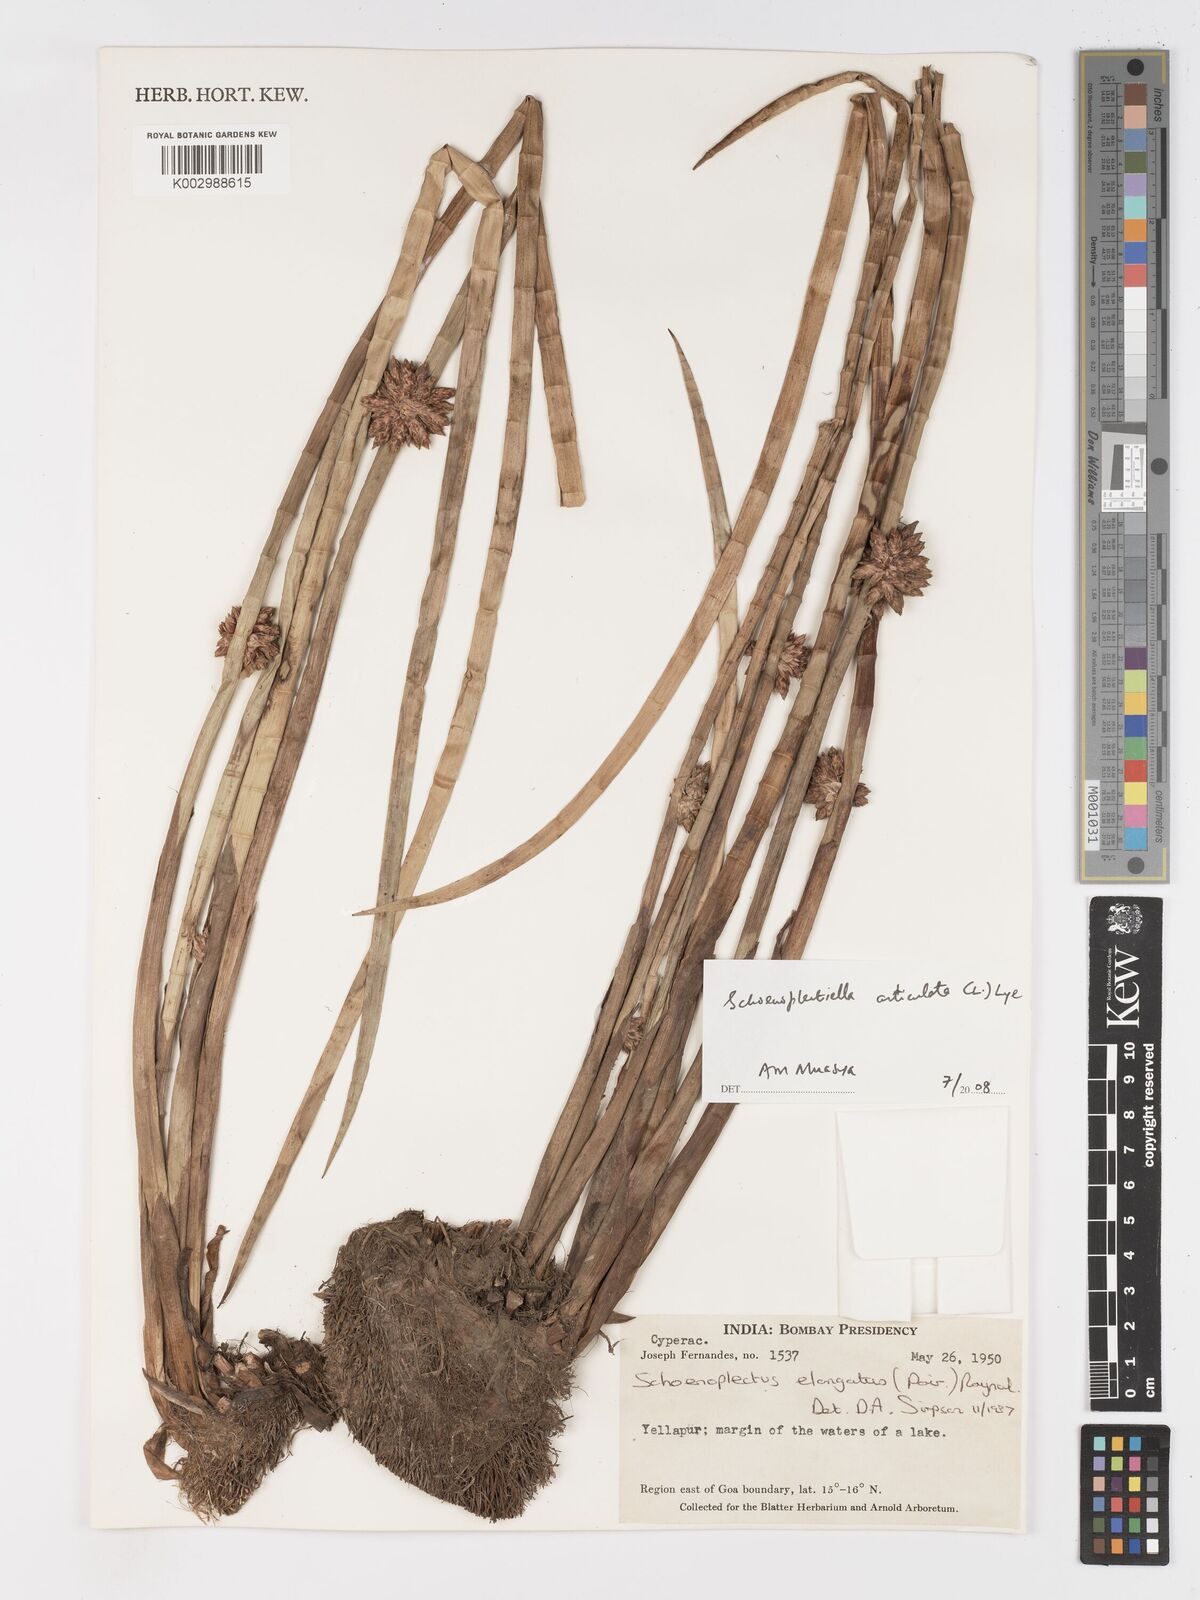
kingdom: Plantae
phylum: Tracheophyta
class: Liliopsida
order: Poales
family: Cyperaceae
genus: Schoenoplectiella
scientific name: Schoenoplectiella praelongata
